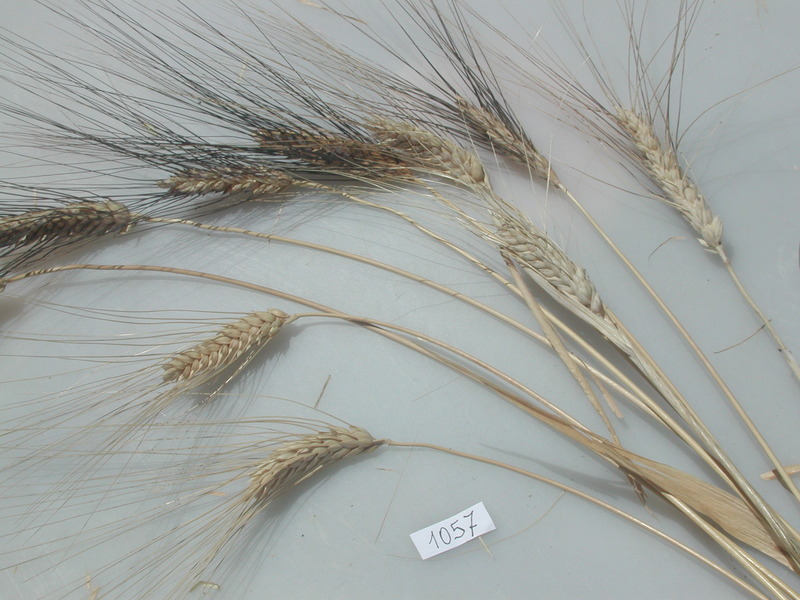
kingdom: Plantae
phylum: Tracheophyta
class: Liliopsida
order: Poales
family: Poaceae
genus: Triticum
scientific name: Triticum turgidum
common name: Wheat
